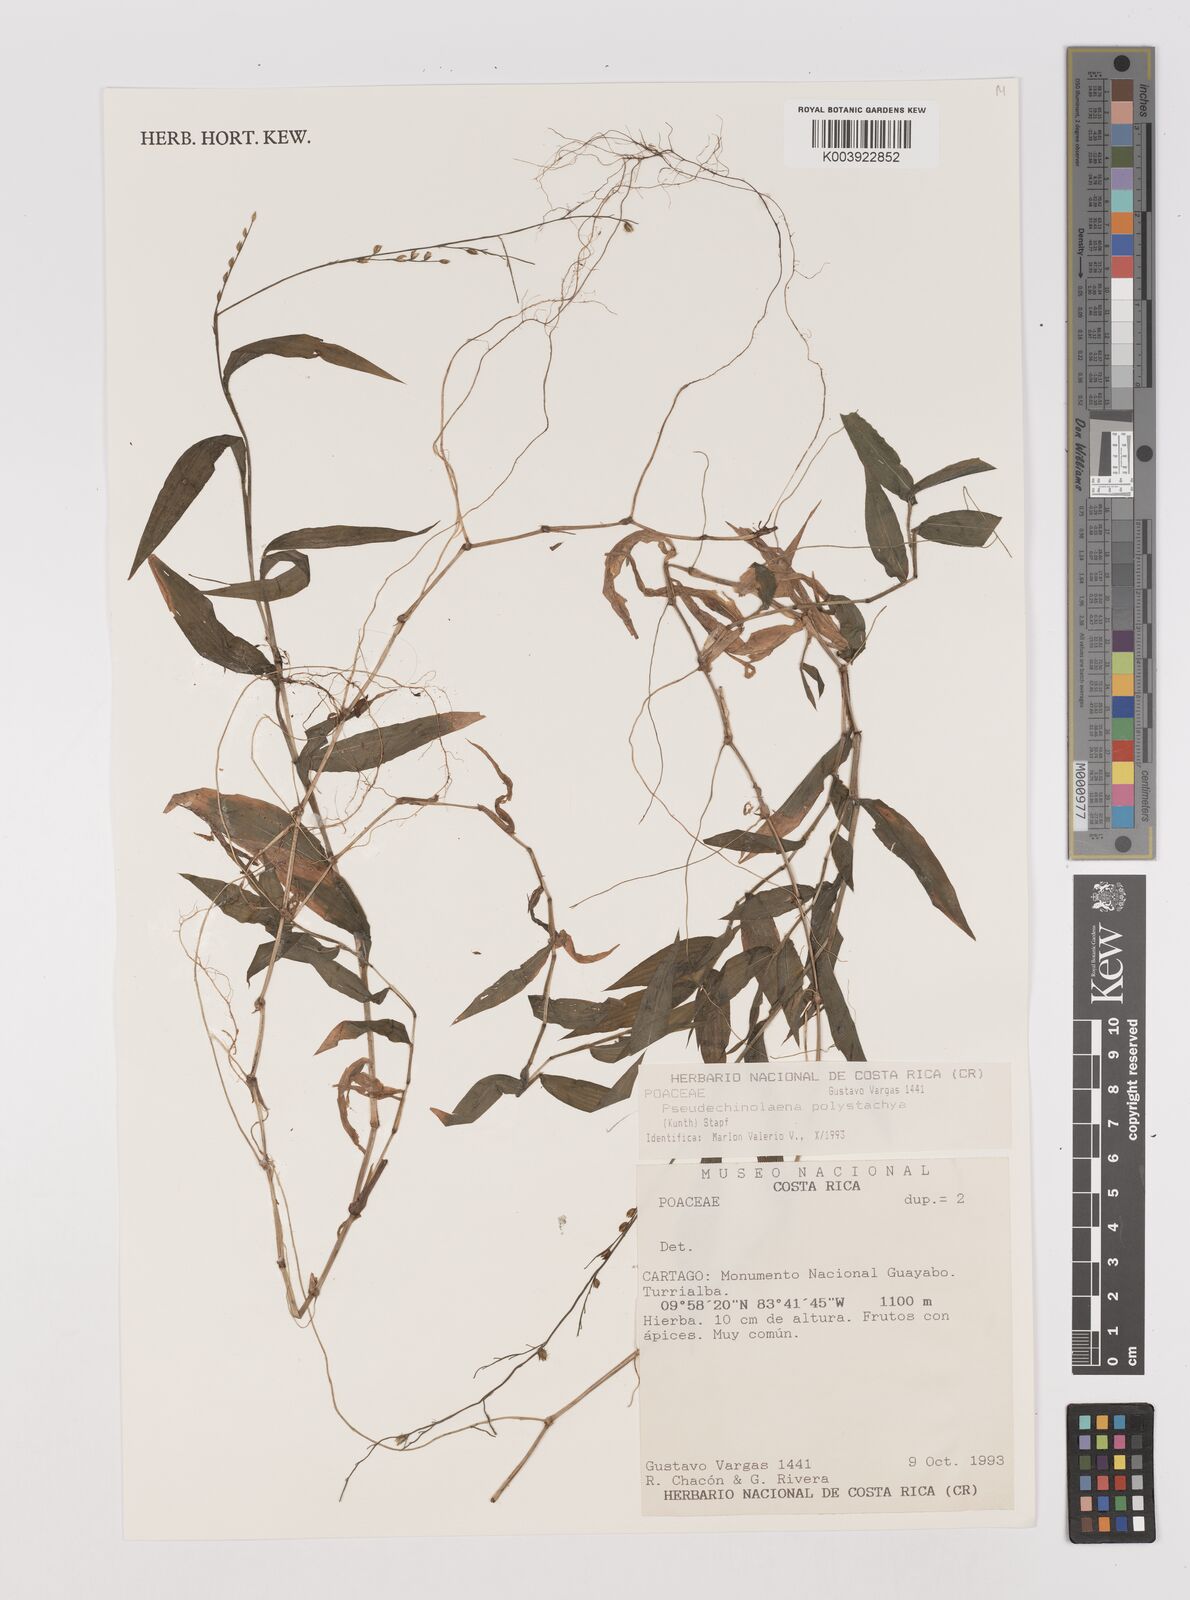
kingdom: Plantae
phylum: Tracheophyta
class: Liliopsida
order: Poales
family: Poaceae
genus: Pseudechinolaena
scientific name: Pseudechinolaena polystachya
